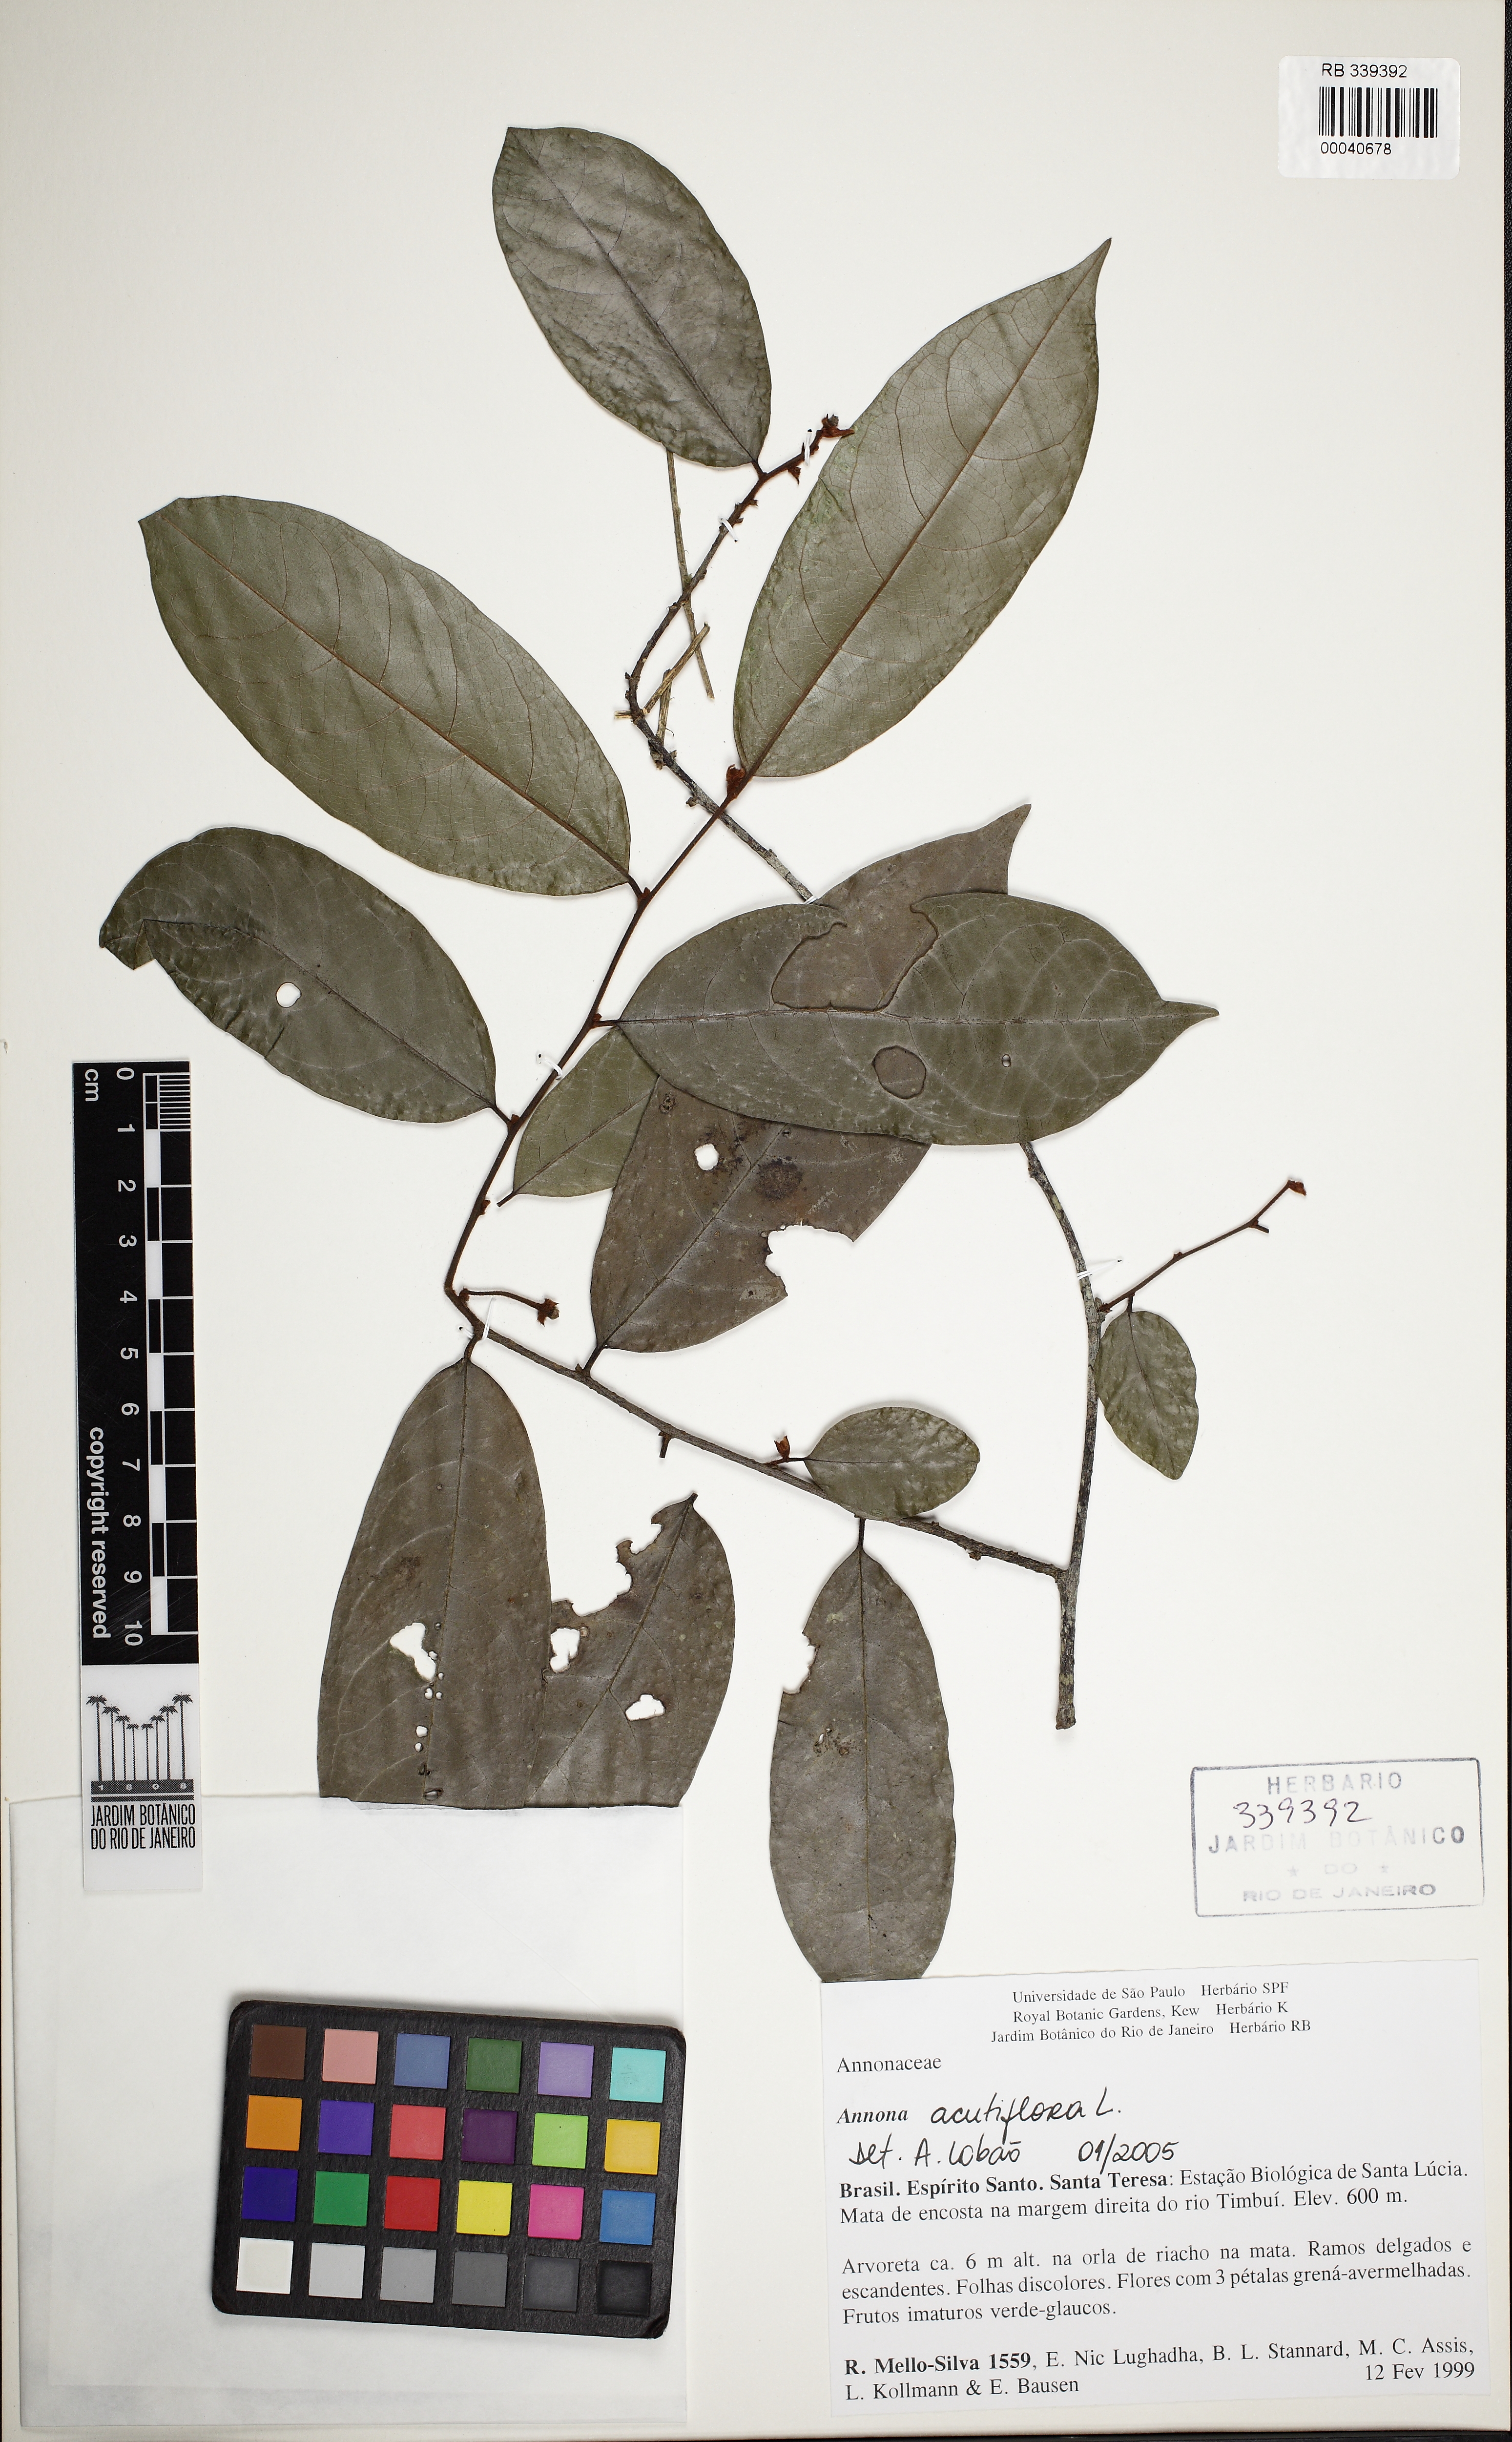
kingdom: Plantae
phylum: Tracheophyta
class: Magnoliopsida
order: Magnoliales
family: Annonaceae
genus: Annona
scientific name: Annona acutiflora
